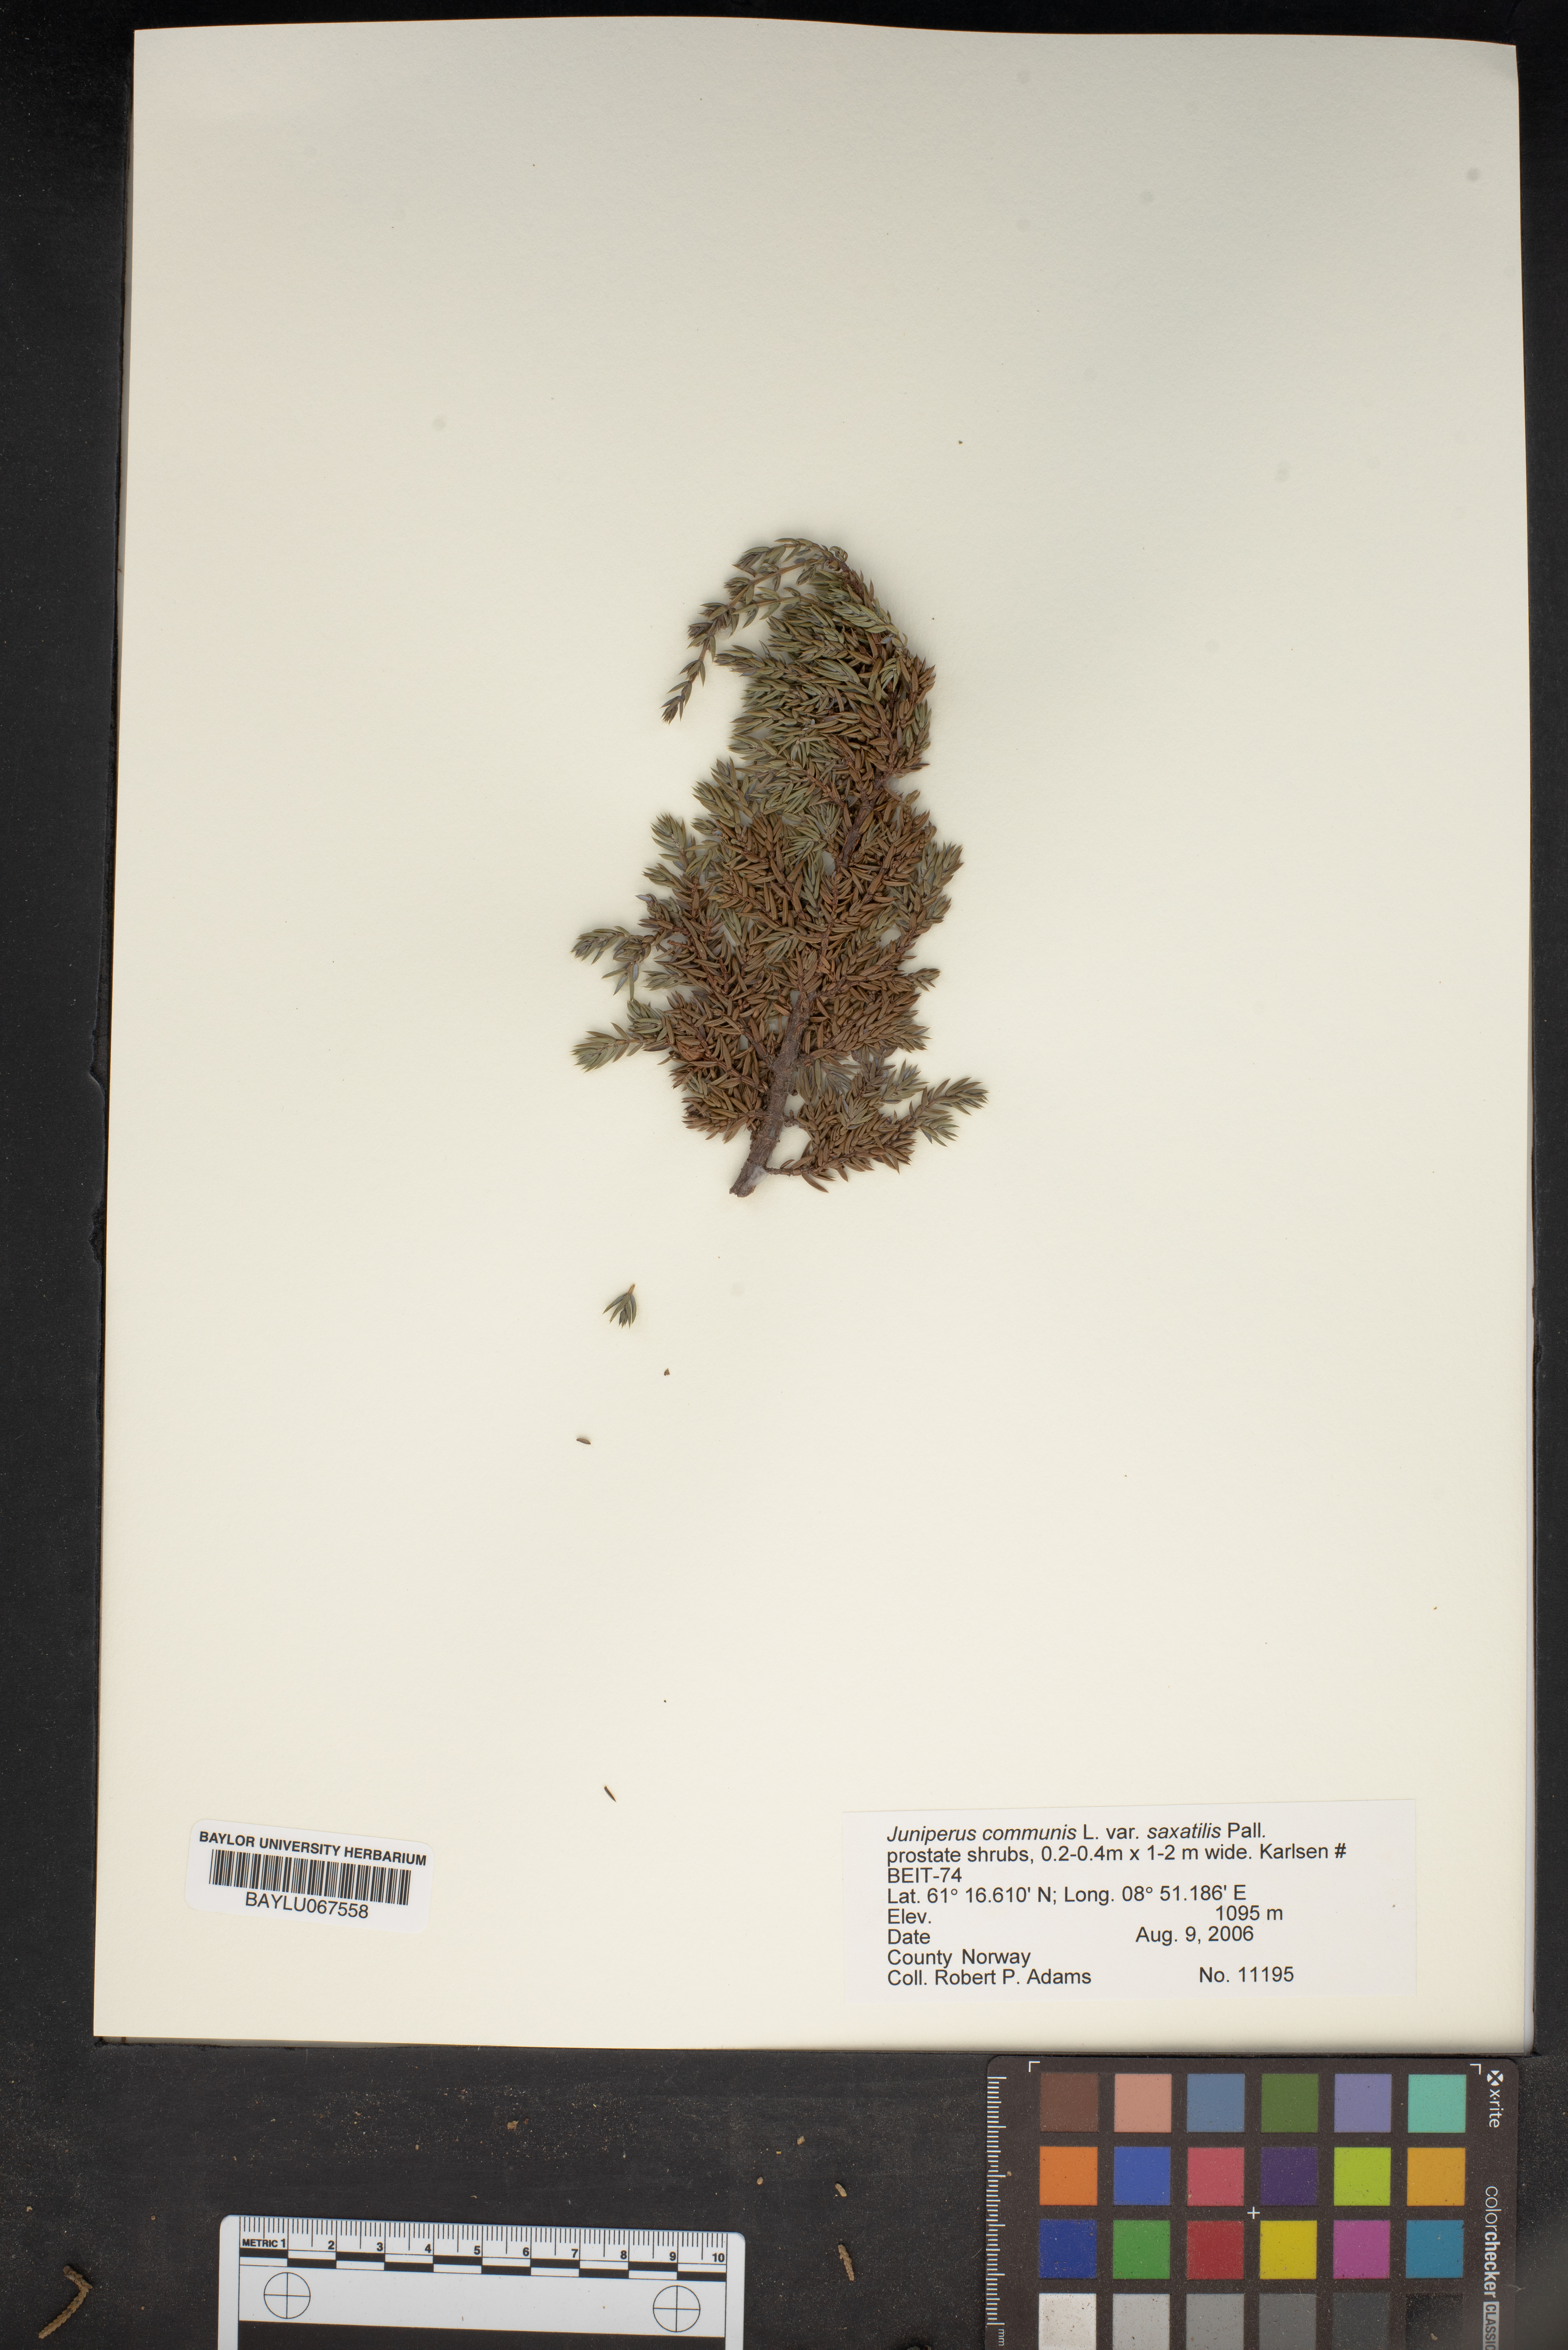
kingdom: Plantae
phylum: Tracheophyta
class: Pinopsida
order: Pinales
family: Cupressaceae
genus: Juniperus
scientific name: Juniperus communis
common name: Common juniper
